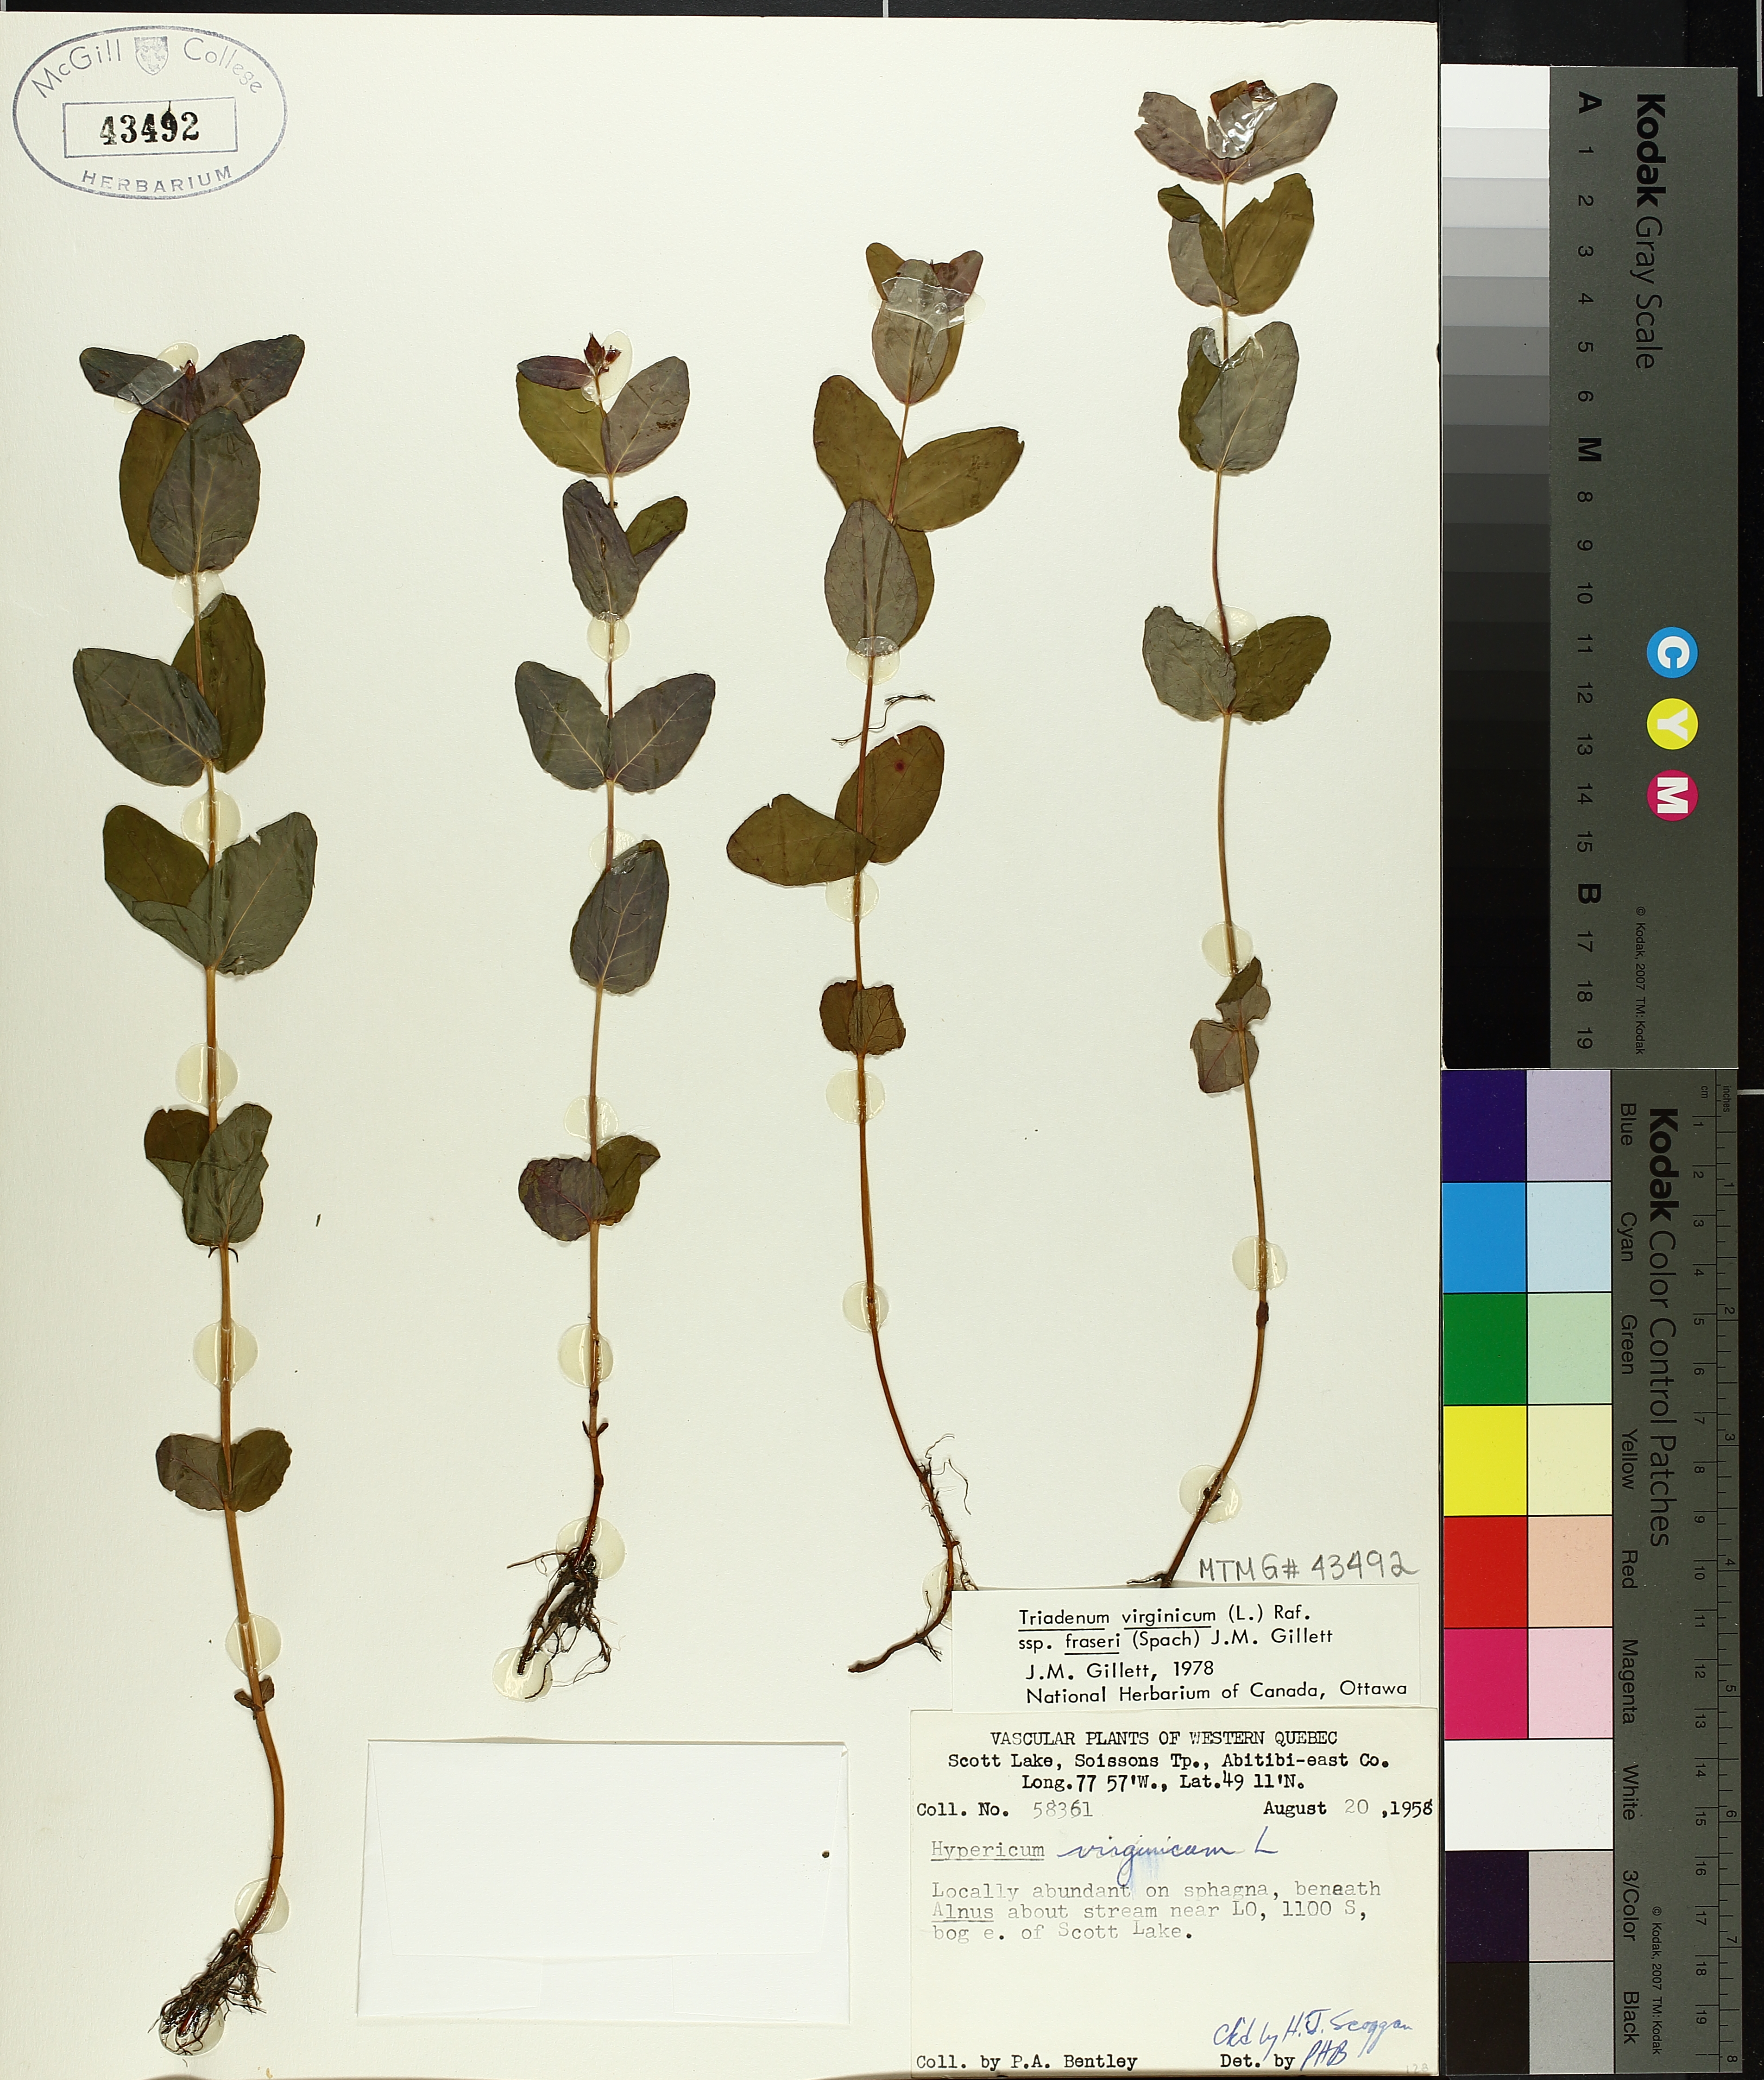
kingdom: Plantae
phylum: Tracheophyta
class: Magnoliopsida
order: Malpighiales
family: Hypericaceae
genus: Triadenum
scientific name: Triadenum fraseri
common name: Fraser's marsh st. johnswort
